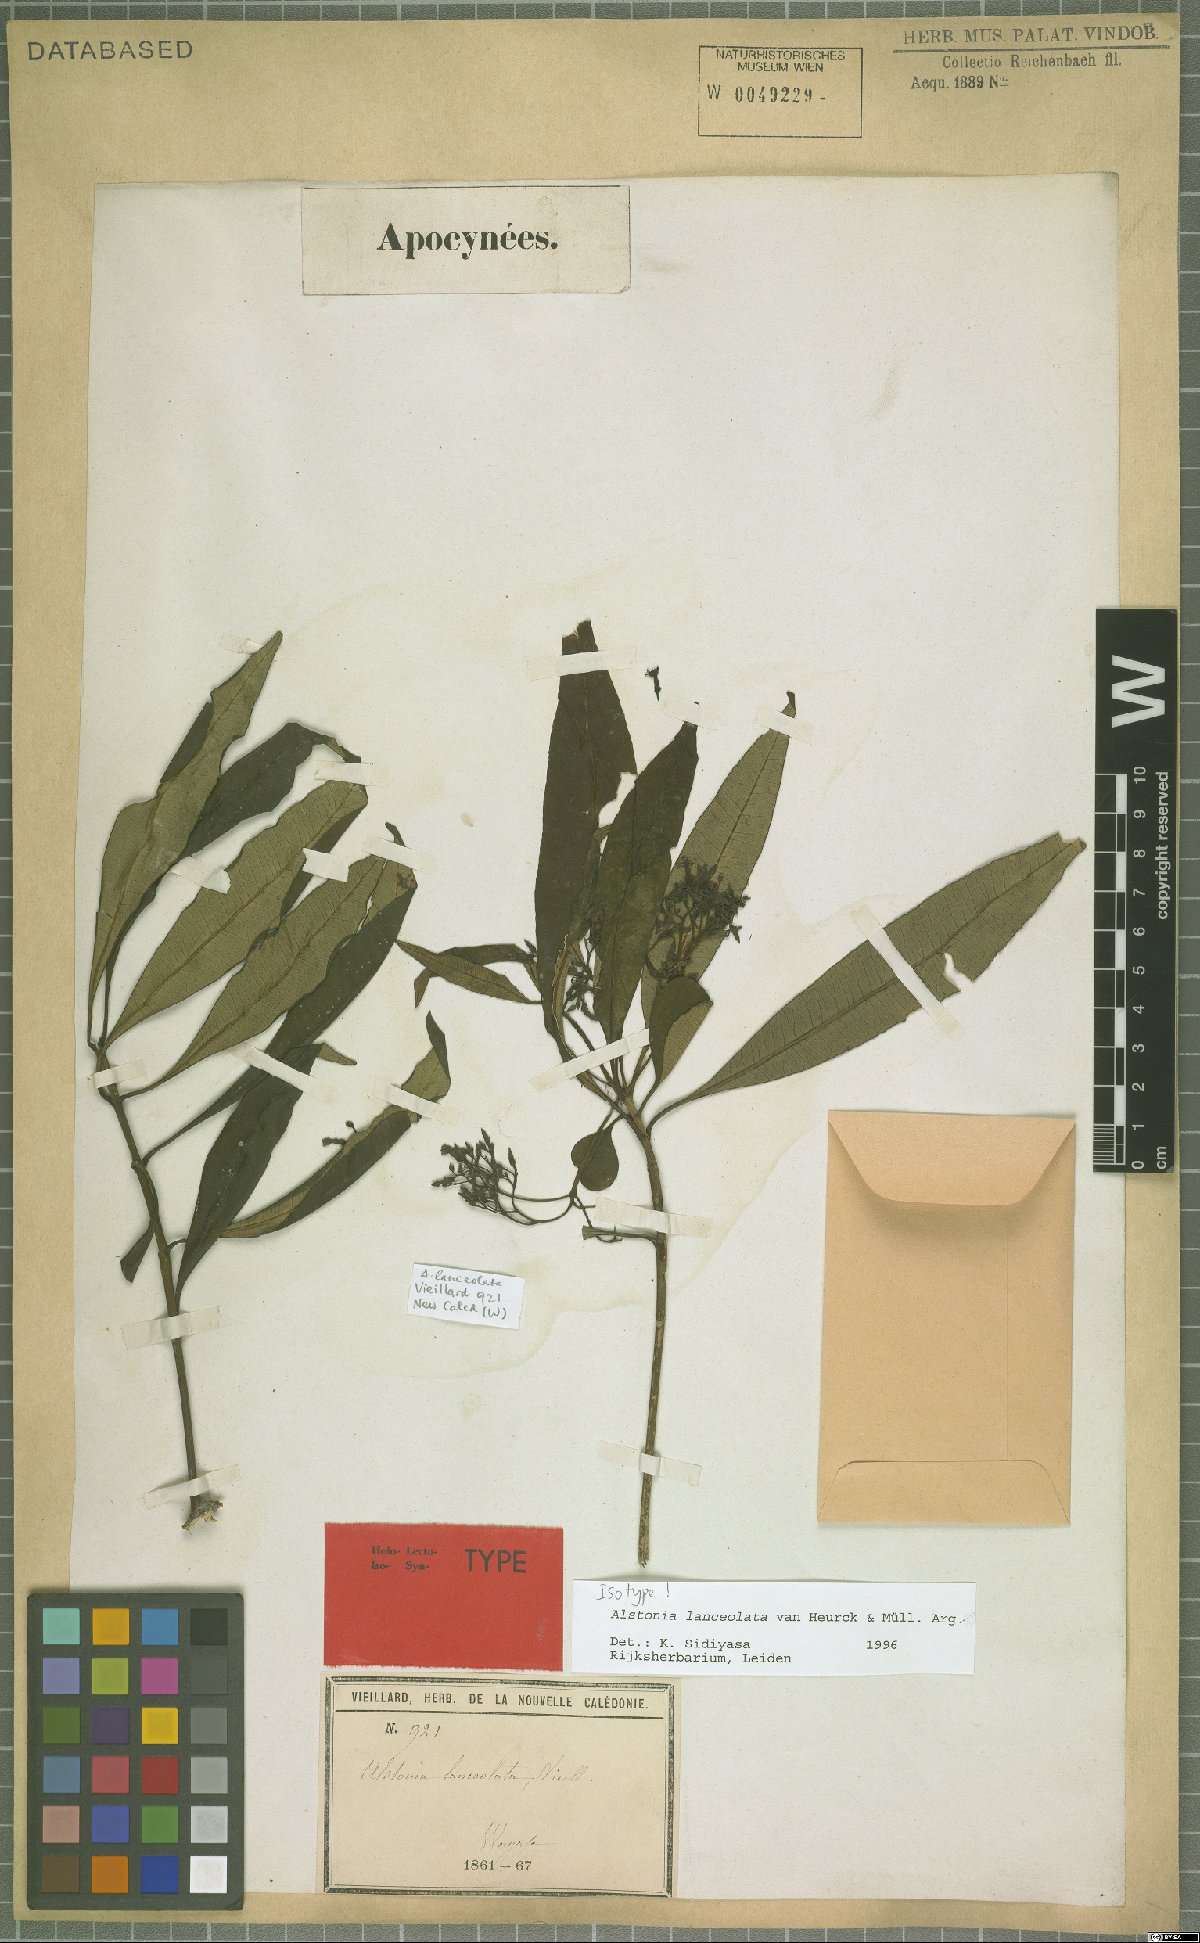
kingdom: Plantae
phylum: Tracheophyta
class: Magnoliopsida
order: Gentianales
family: Apocynaceae
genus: Alstonia
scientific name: Alstonia lanceolata
